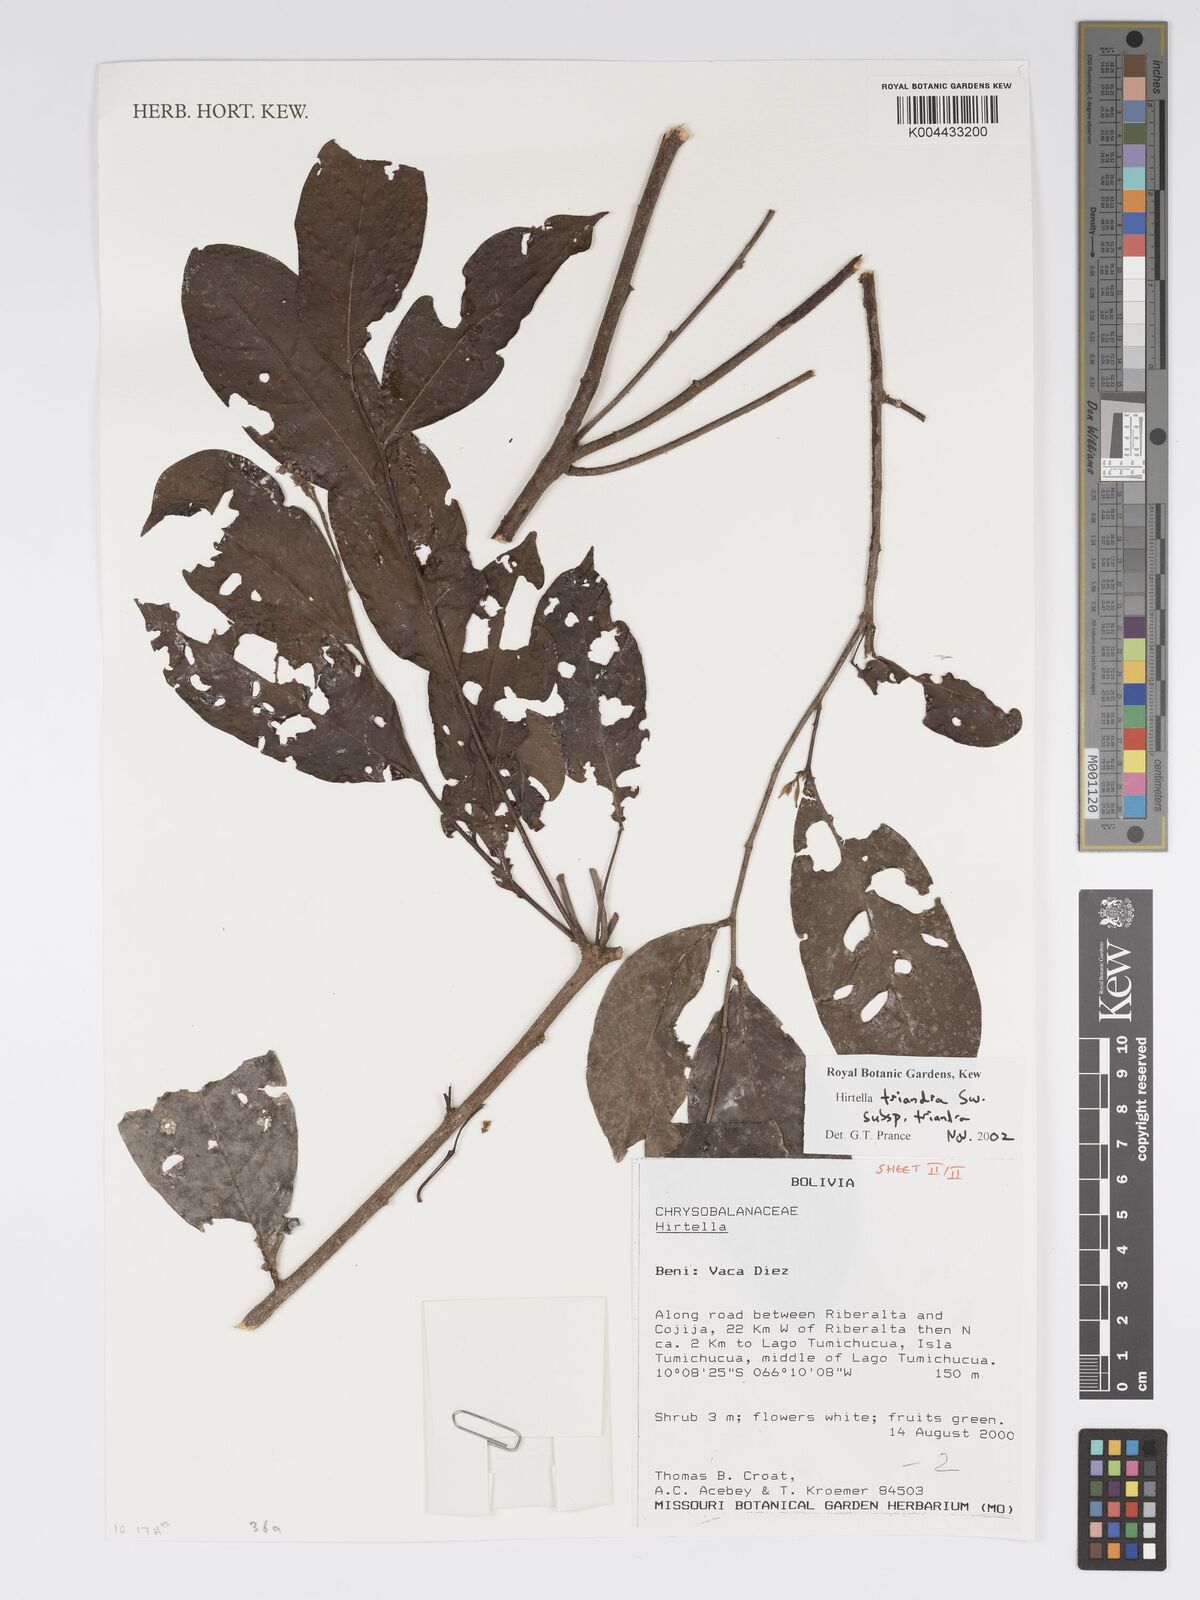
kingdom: Plantae
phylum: Tracheophyta
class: Magnoliopsida
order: Malpighiales
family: Chrysobalanaceae
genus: Hirtella
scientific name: Hirtella triandra
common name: Hairy plum
